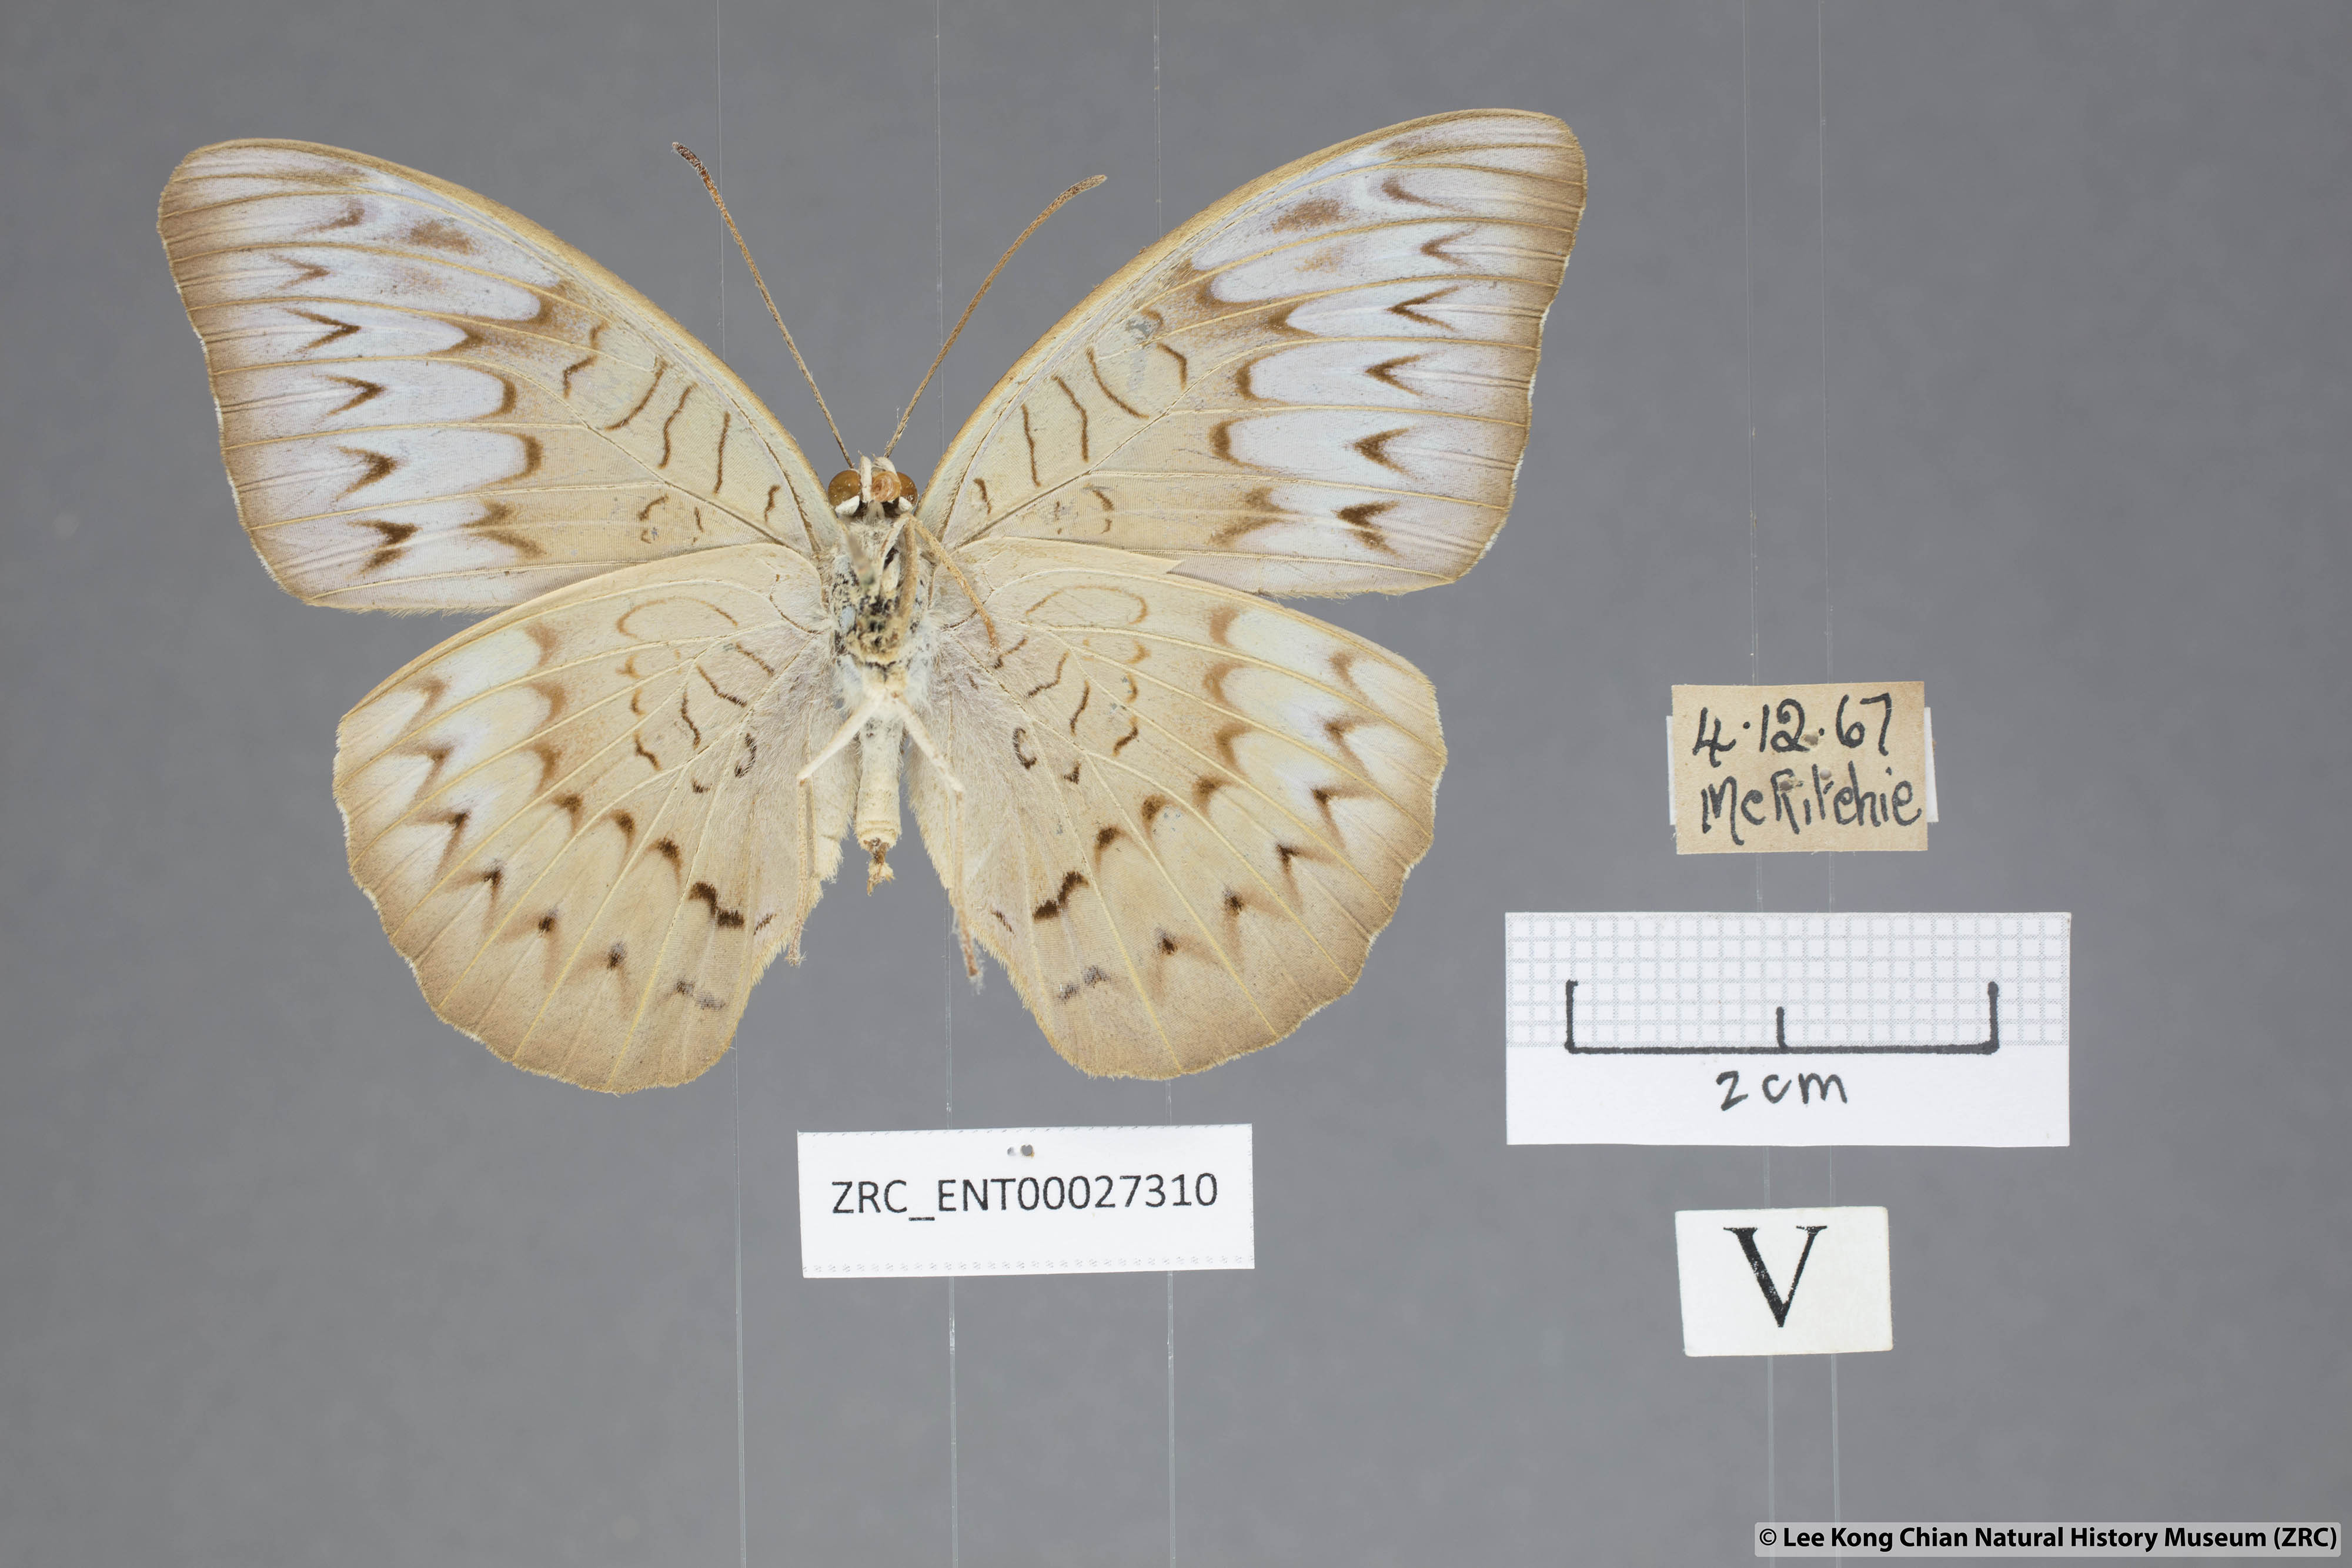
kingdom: Animalia
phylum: Arthropoda
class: Insecta
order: Lepidoptera
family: Nymphalidae
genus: Tanaecia
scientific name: Tanaecia palguna
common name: Long-lined viscount
